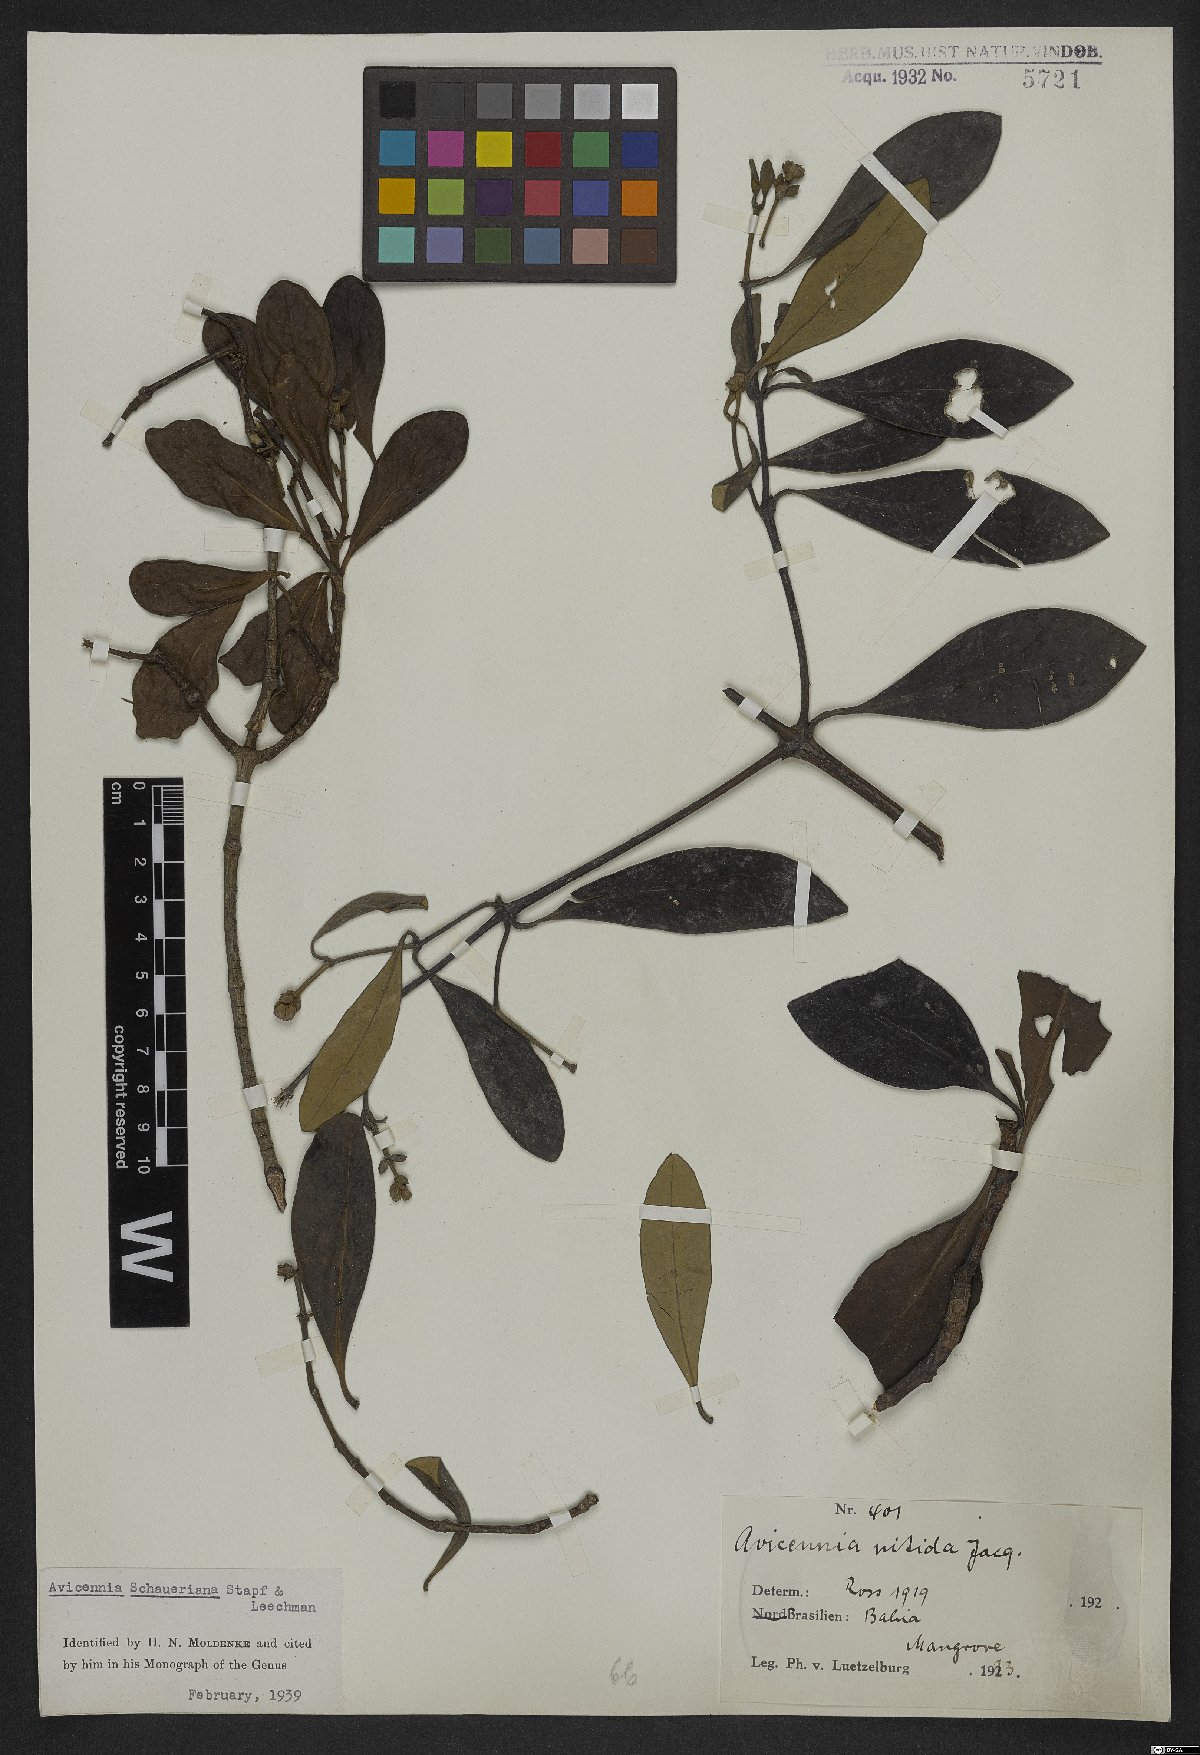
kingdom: Plantae
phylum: Tracheophyta
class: Magnoliopsida
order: Lamiales
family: Acanthaceae
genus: Avicennia
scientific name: Avicennia schaueriana
